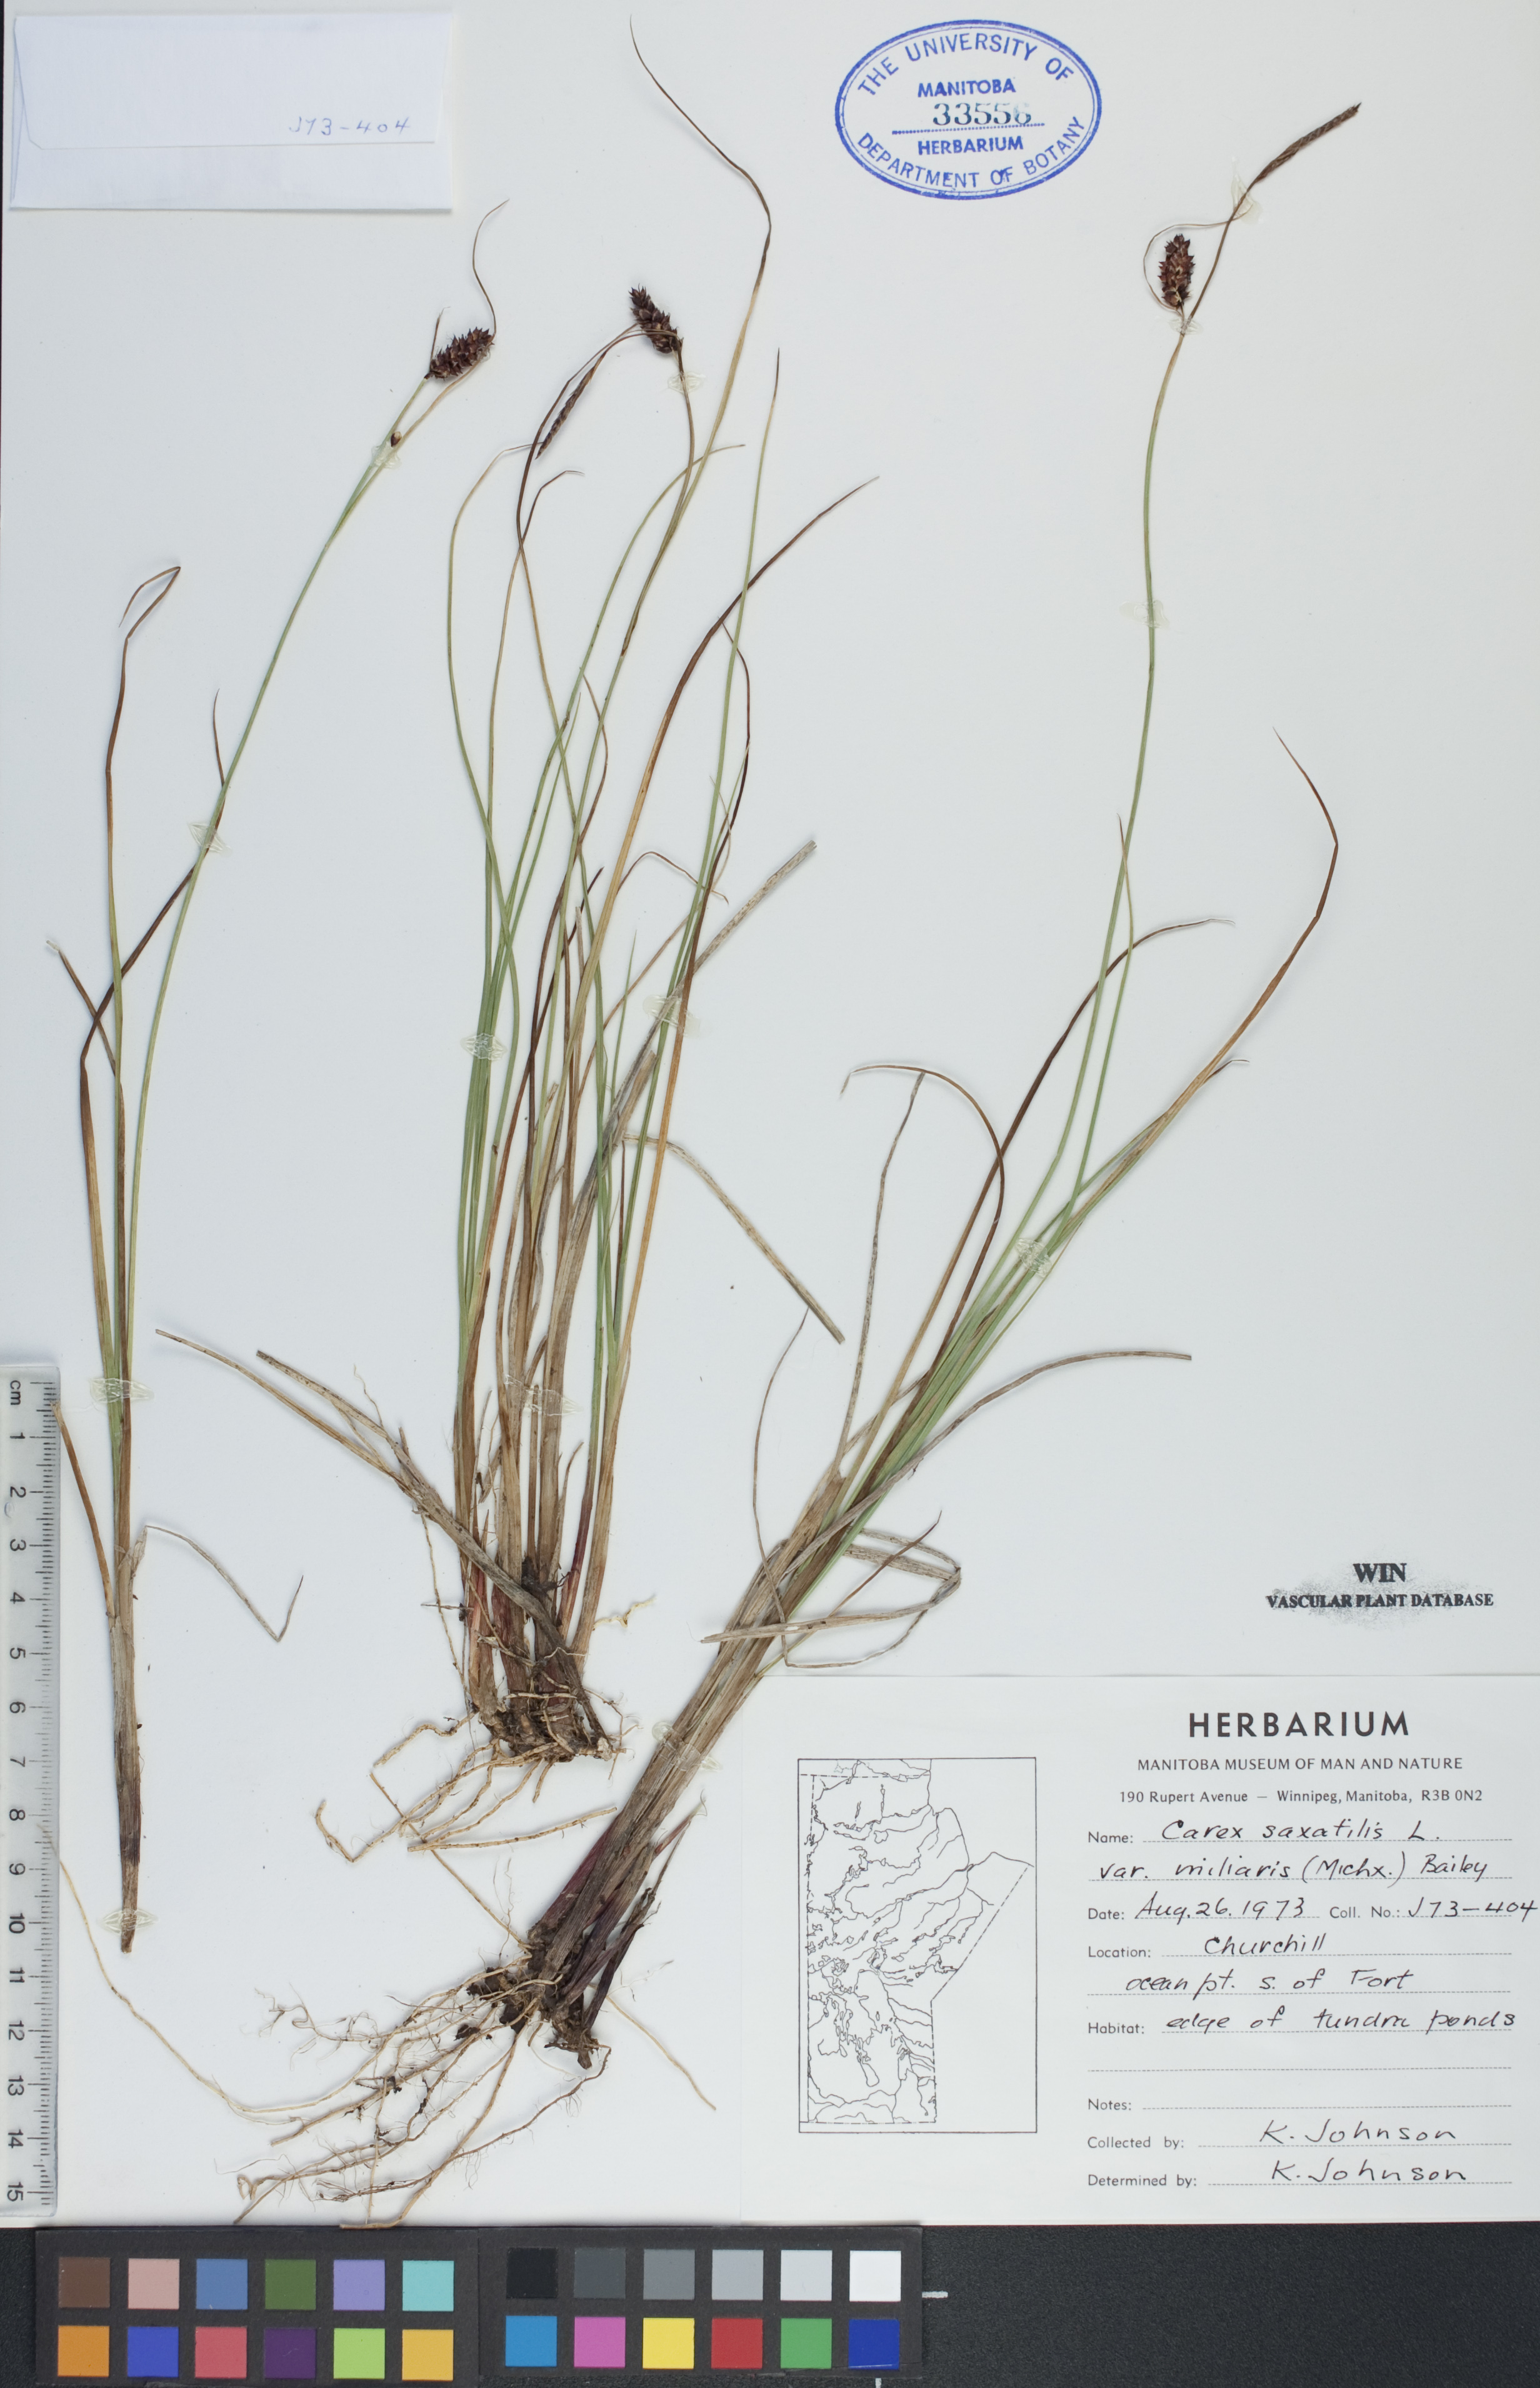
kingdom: Plantae
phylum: Tracheophyta
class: Liliopsida
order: Poales
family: Cyperaceae
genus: Carex
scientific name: Carex miliaris
